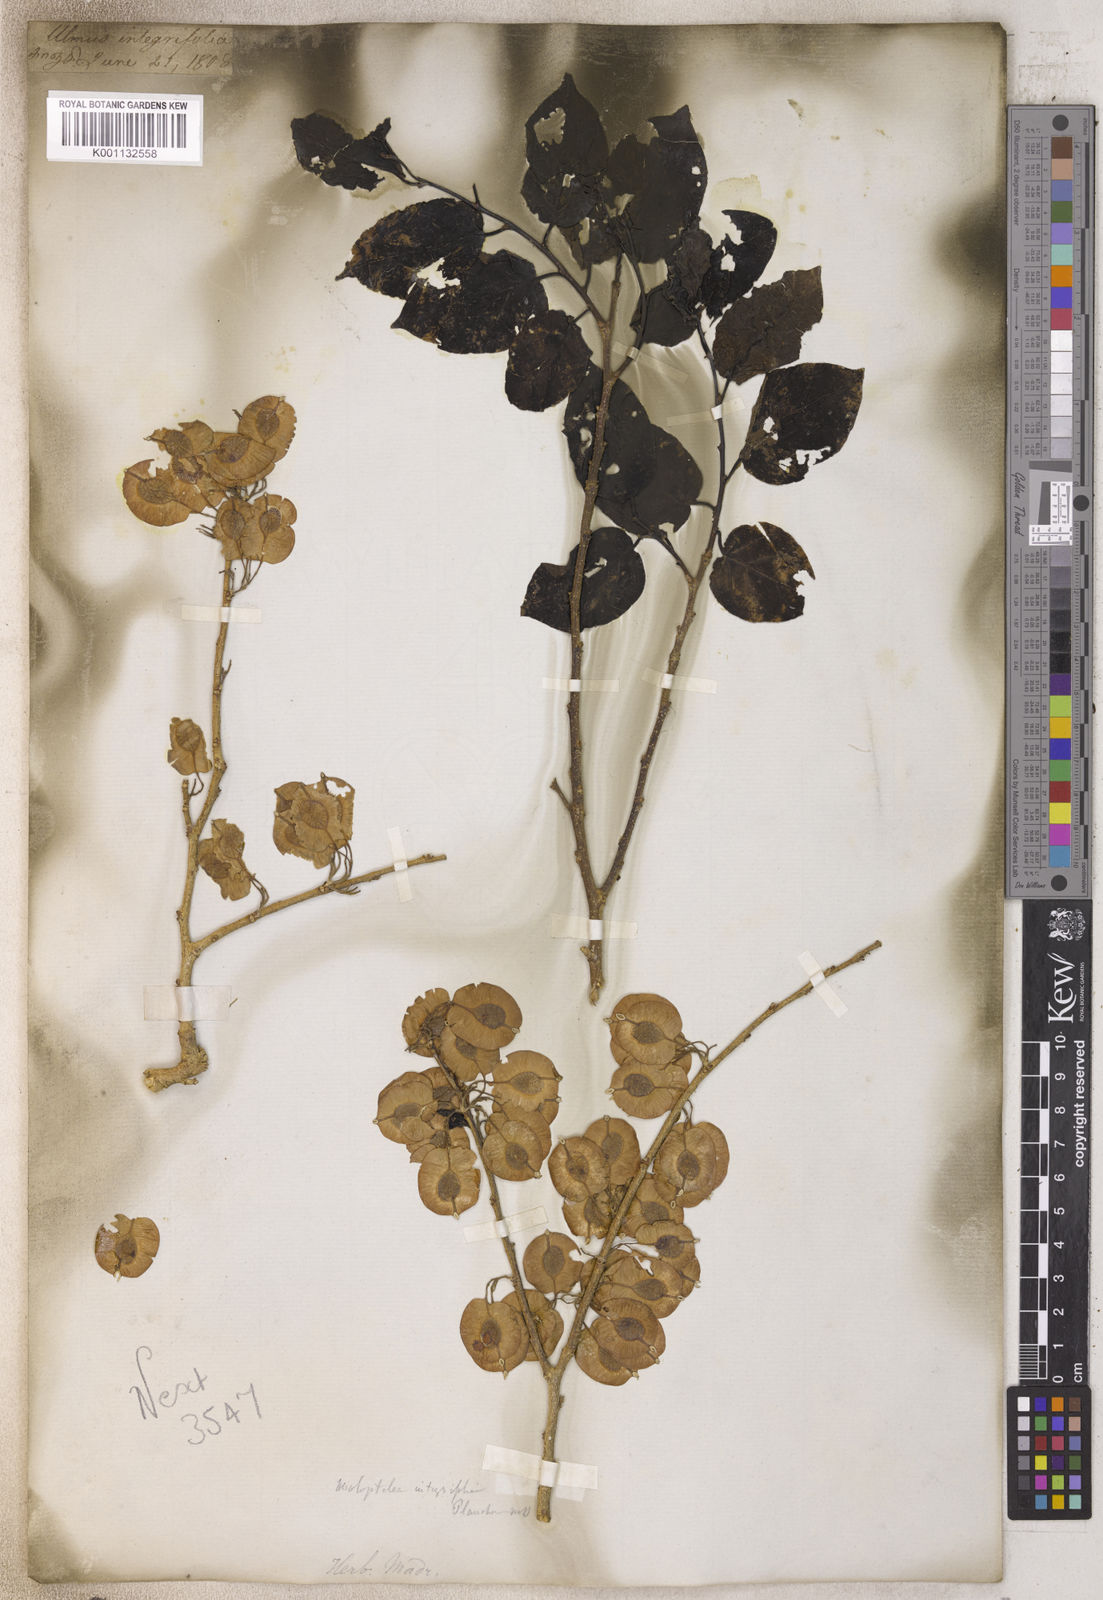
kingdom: Plantae
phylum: Tracheophyta
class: Magnoliopsida
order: Rosales
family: Ulmaceae
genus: Holoptelea
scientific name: Holoptelea
